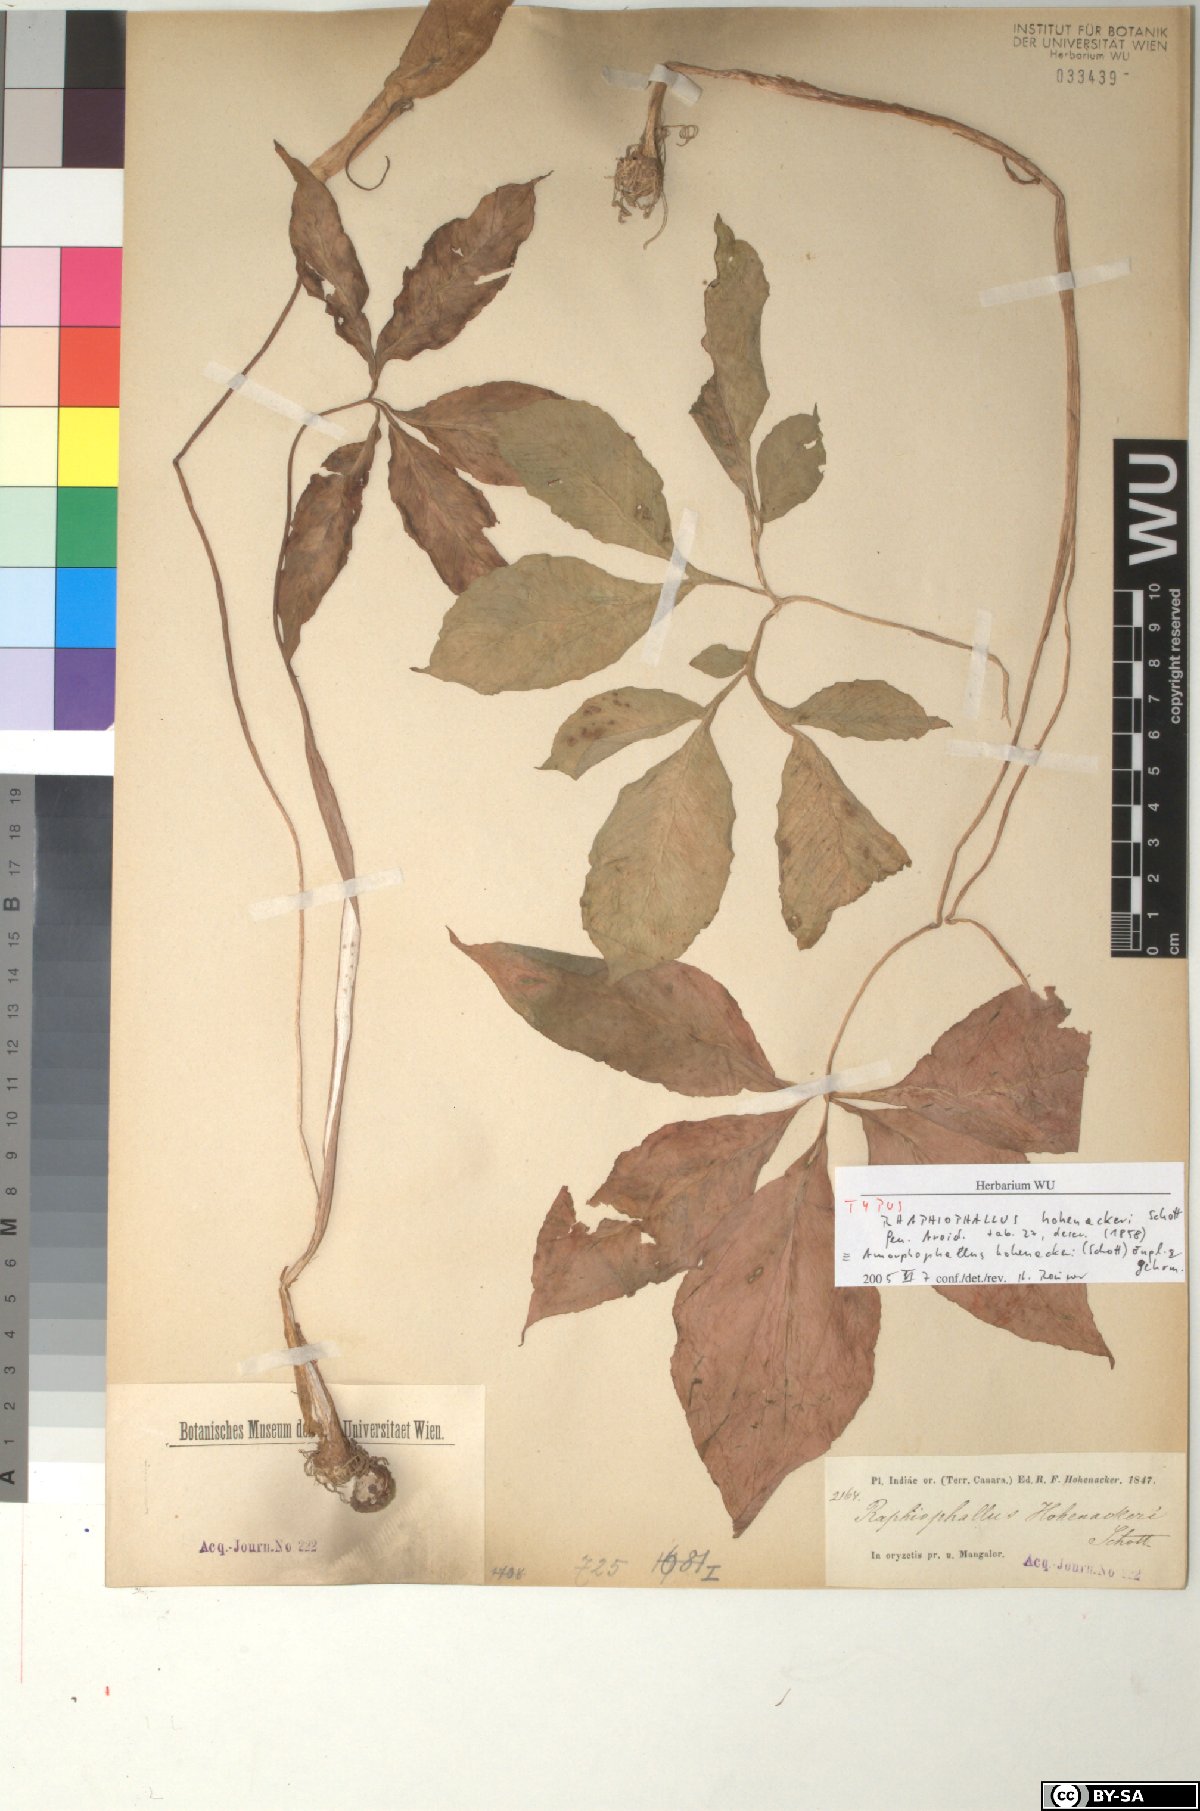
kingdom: Plantae
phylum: Tracheophyta
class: Liliopsida
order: Alismatales
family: Araceae
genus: Amorphophallus
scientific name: Amorphophallus hohenackeri
